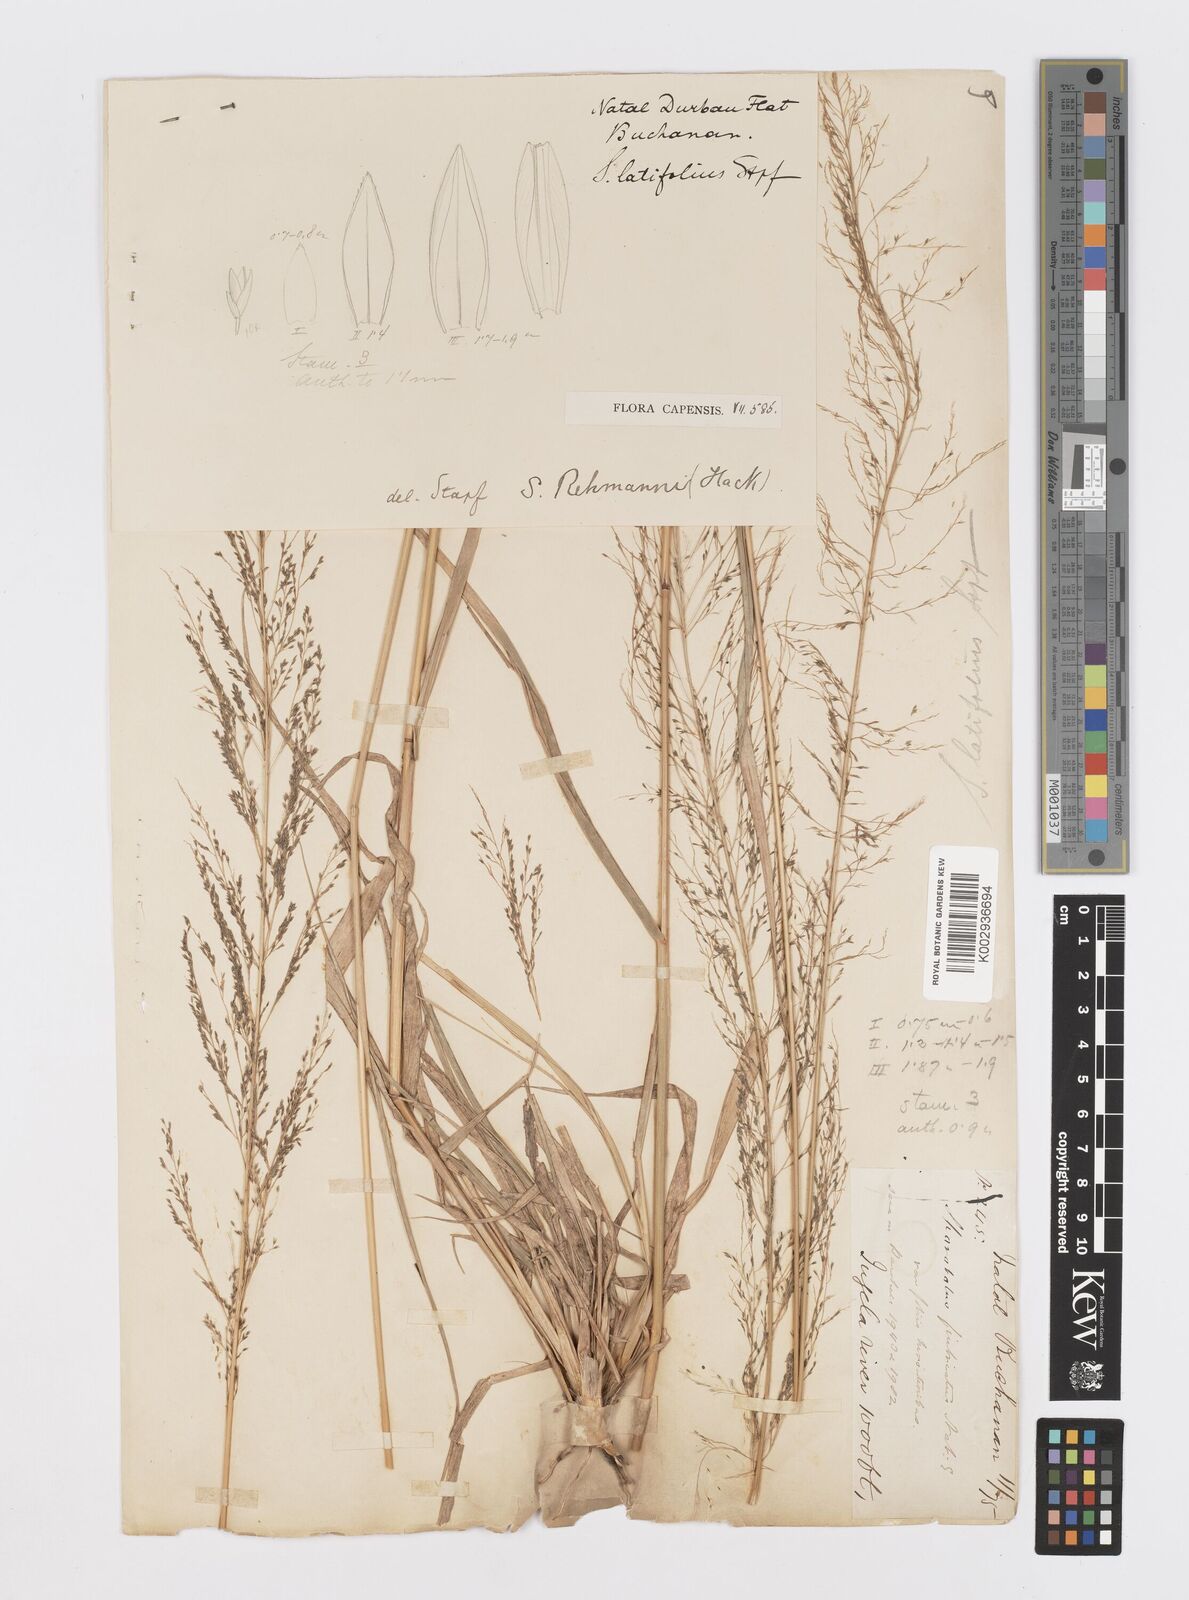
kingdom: Plantae
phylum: Tracheophyta
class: Liliopsida
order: Poales
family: Poaceae
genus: Sporobolus
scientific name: Sporobolus fimbriatus
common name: Fringed dropseed
